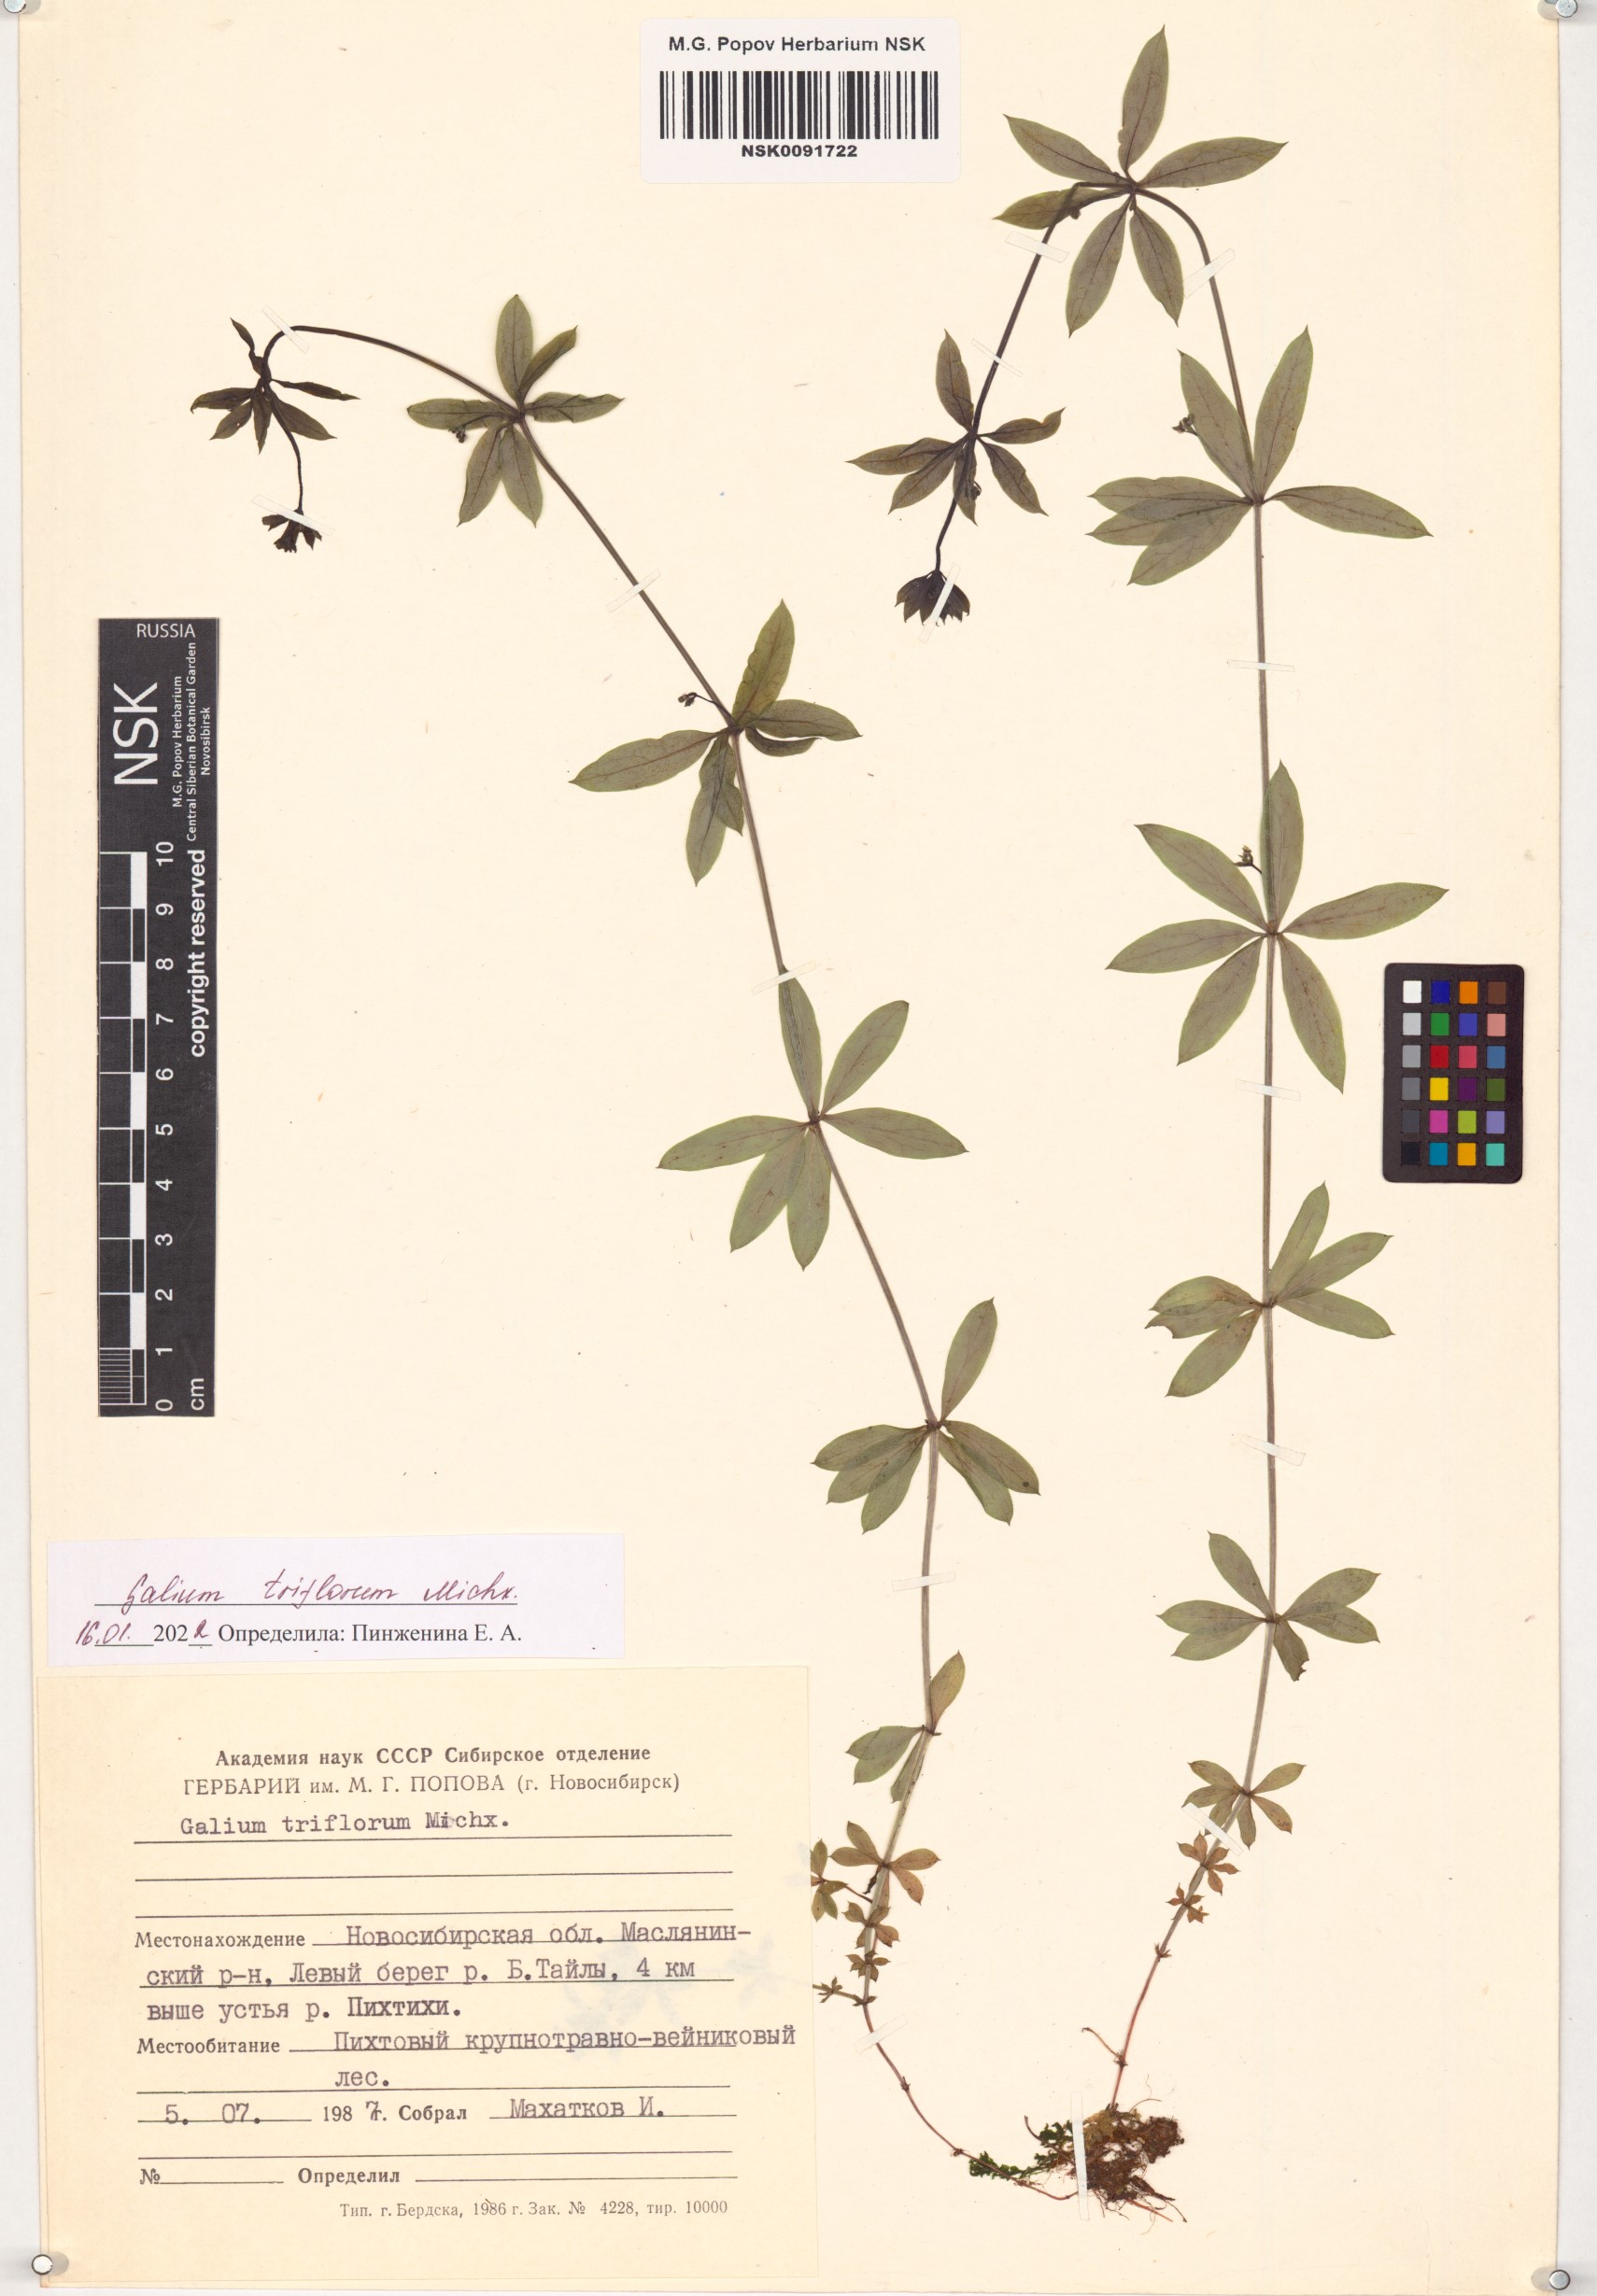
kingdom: Plantae
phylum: Tracheophyta
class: Magnoliopsida
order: Gentianales
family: Rubiaceae
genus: Galium
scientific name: Galium triflorum
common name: Fragrant bedstraw
